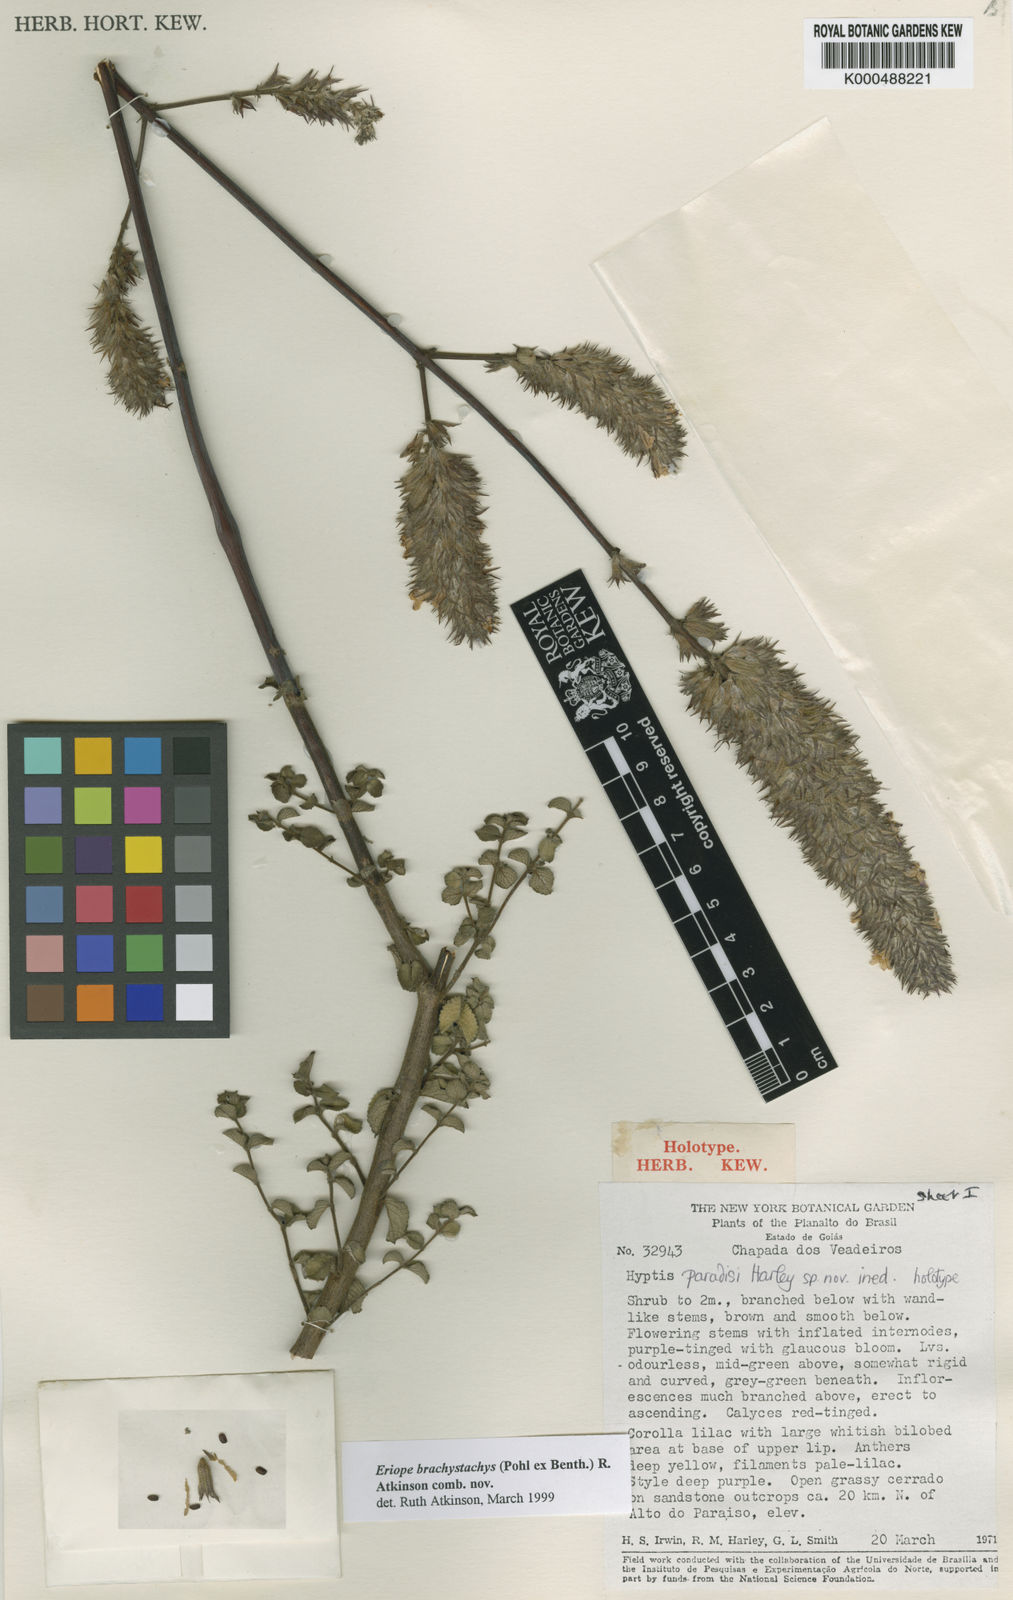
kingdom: Plantae
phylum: Tracheophyta
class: Magnoliopsida
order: Lamiales
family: Lamiaceae
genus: Hypenia
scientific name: Hypenia brachystachys
